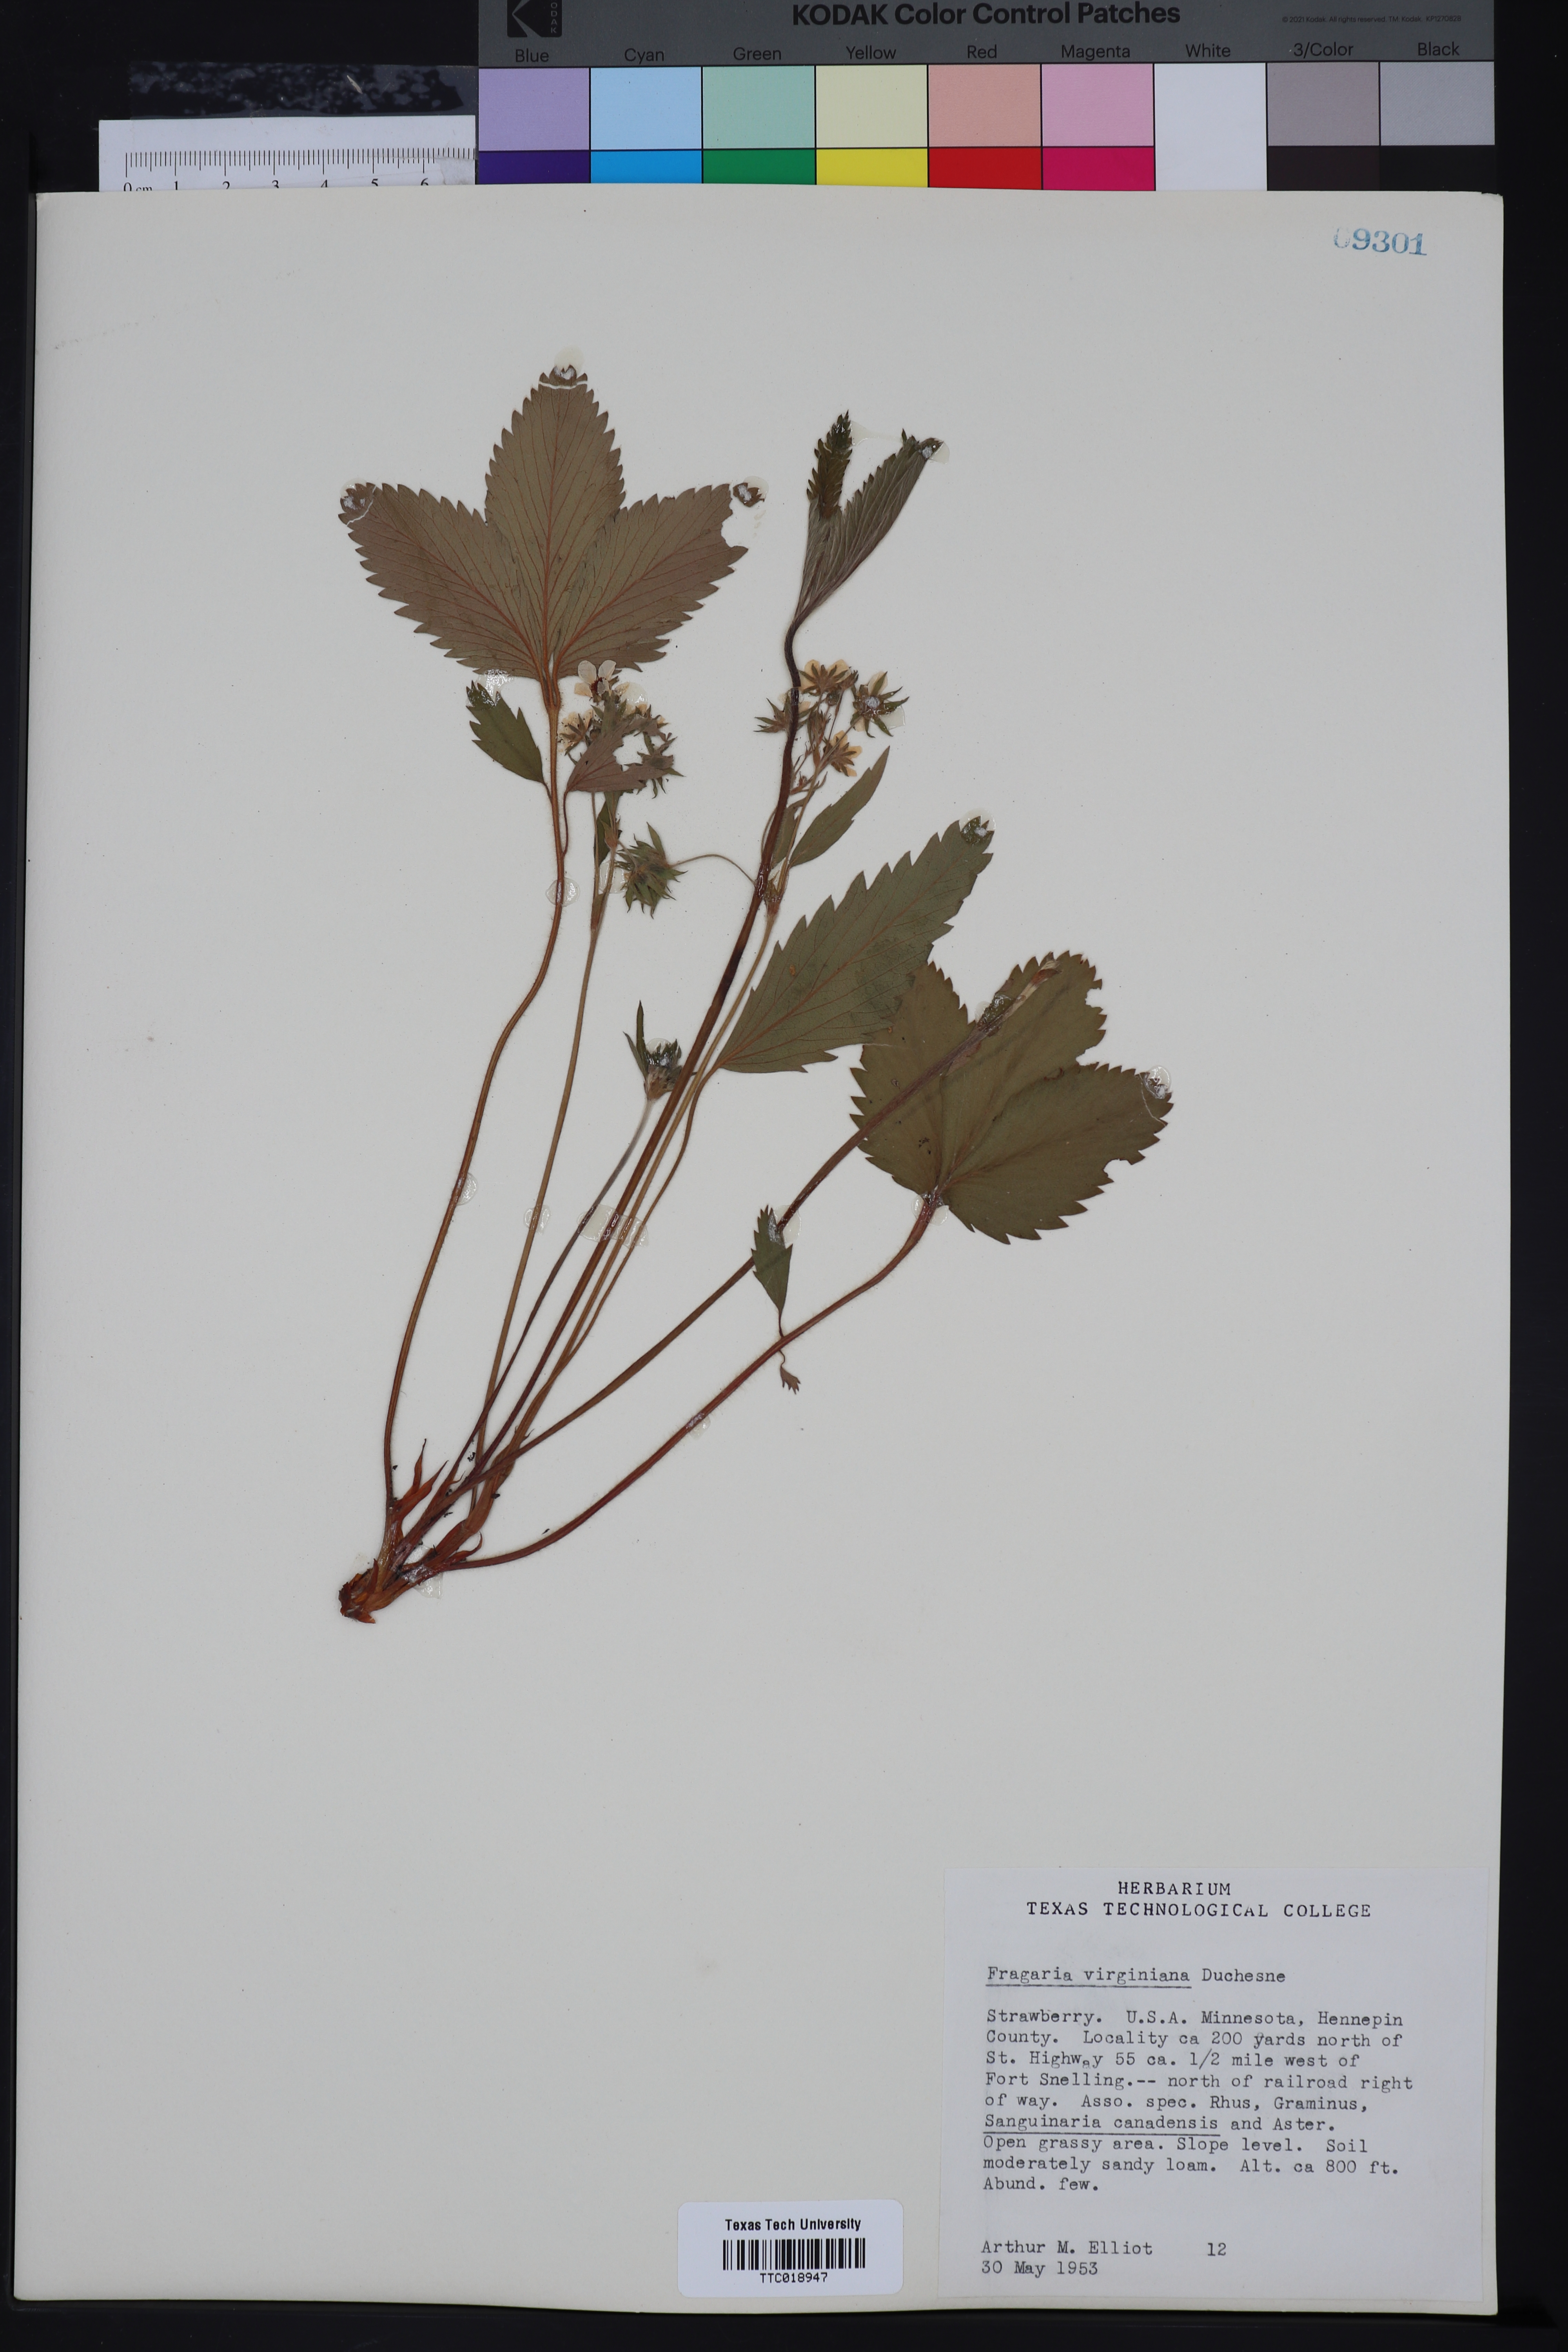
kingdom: Plantae
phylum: Tracheophyta
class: Magnoliopsida
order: Rosales
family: Rosaceae
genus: Fragaria
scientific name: Fragaria virginiana
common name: Thickleaved wild strawberry
